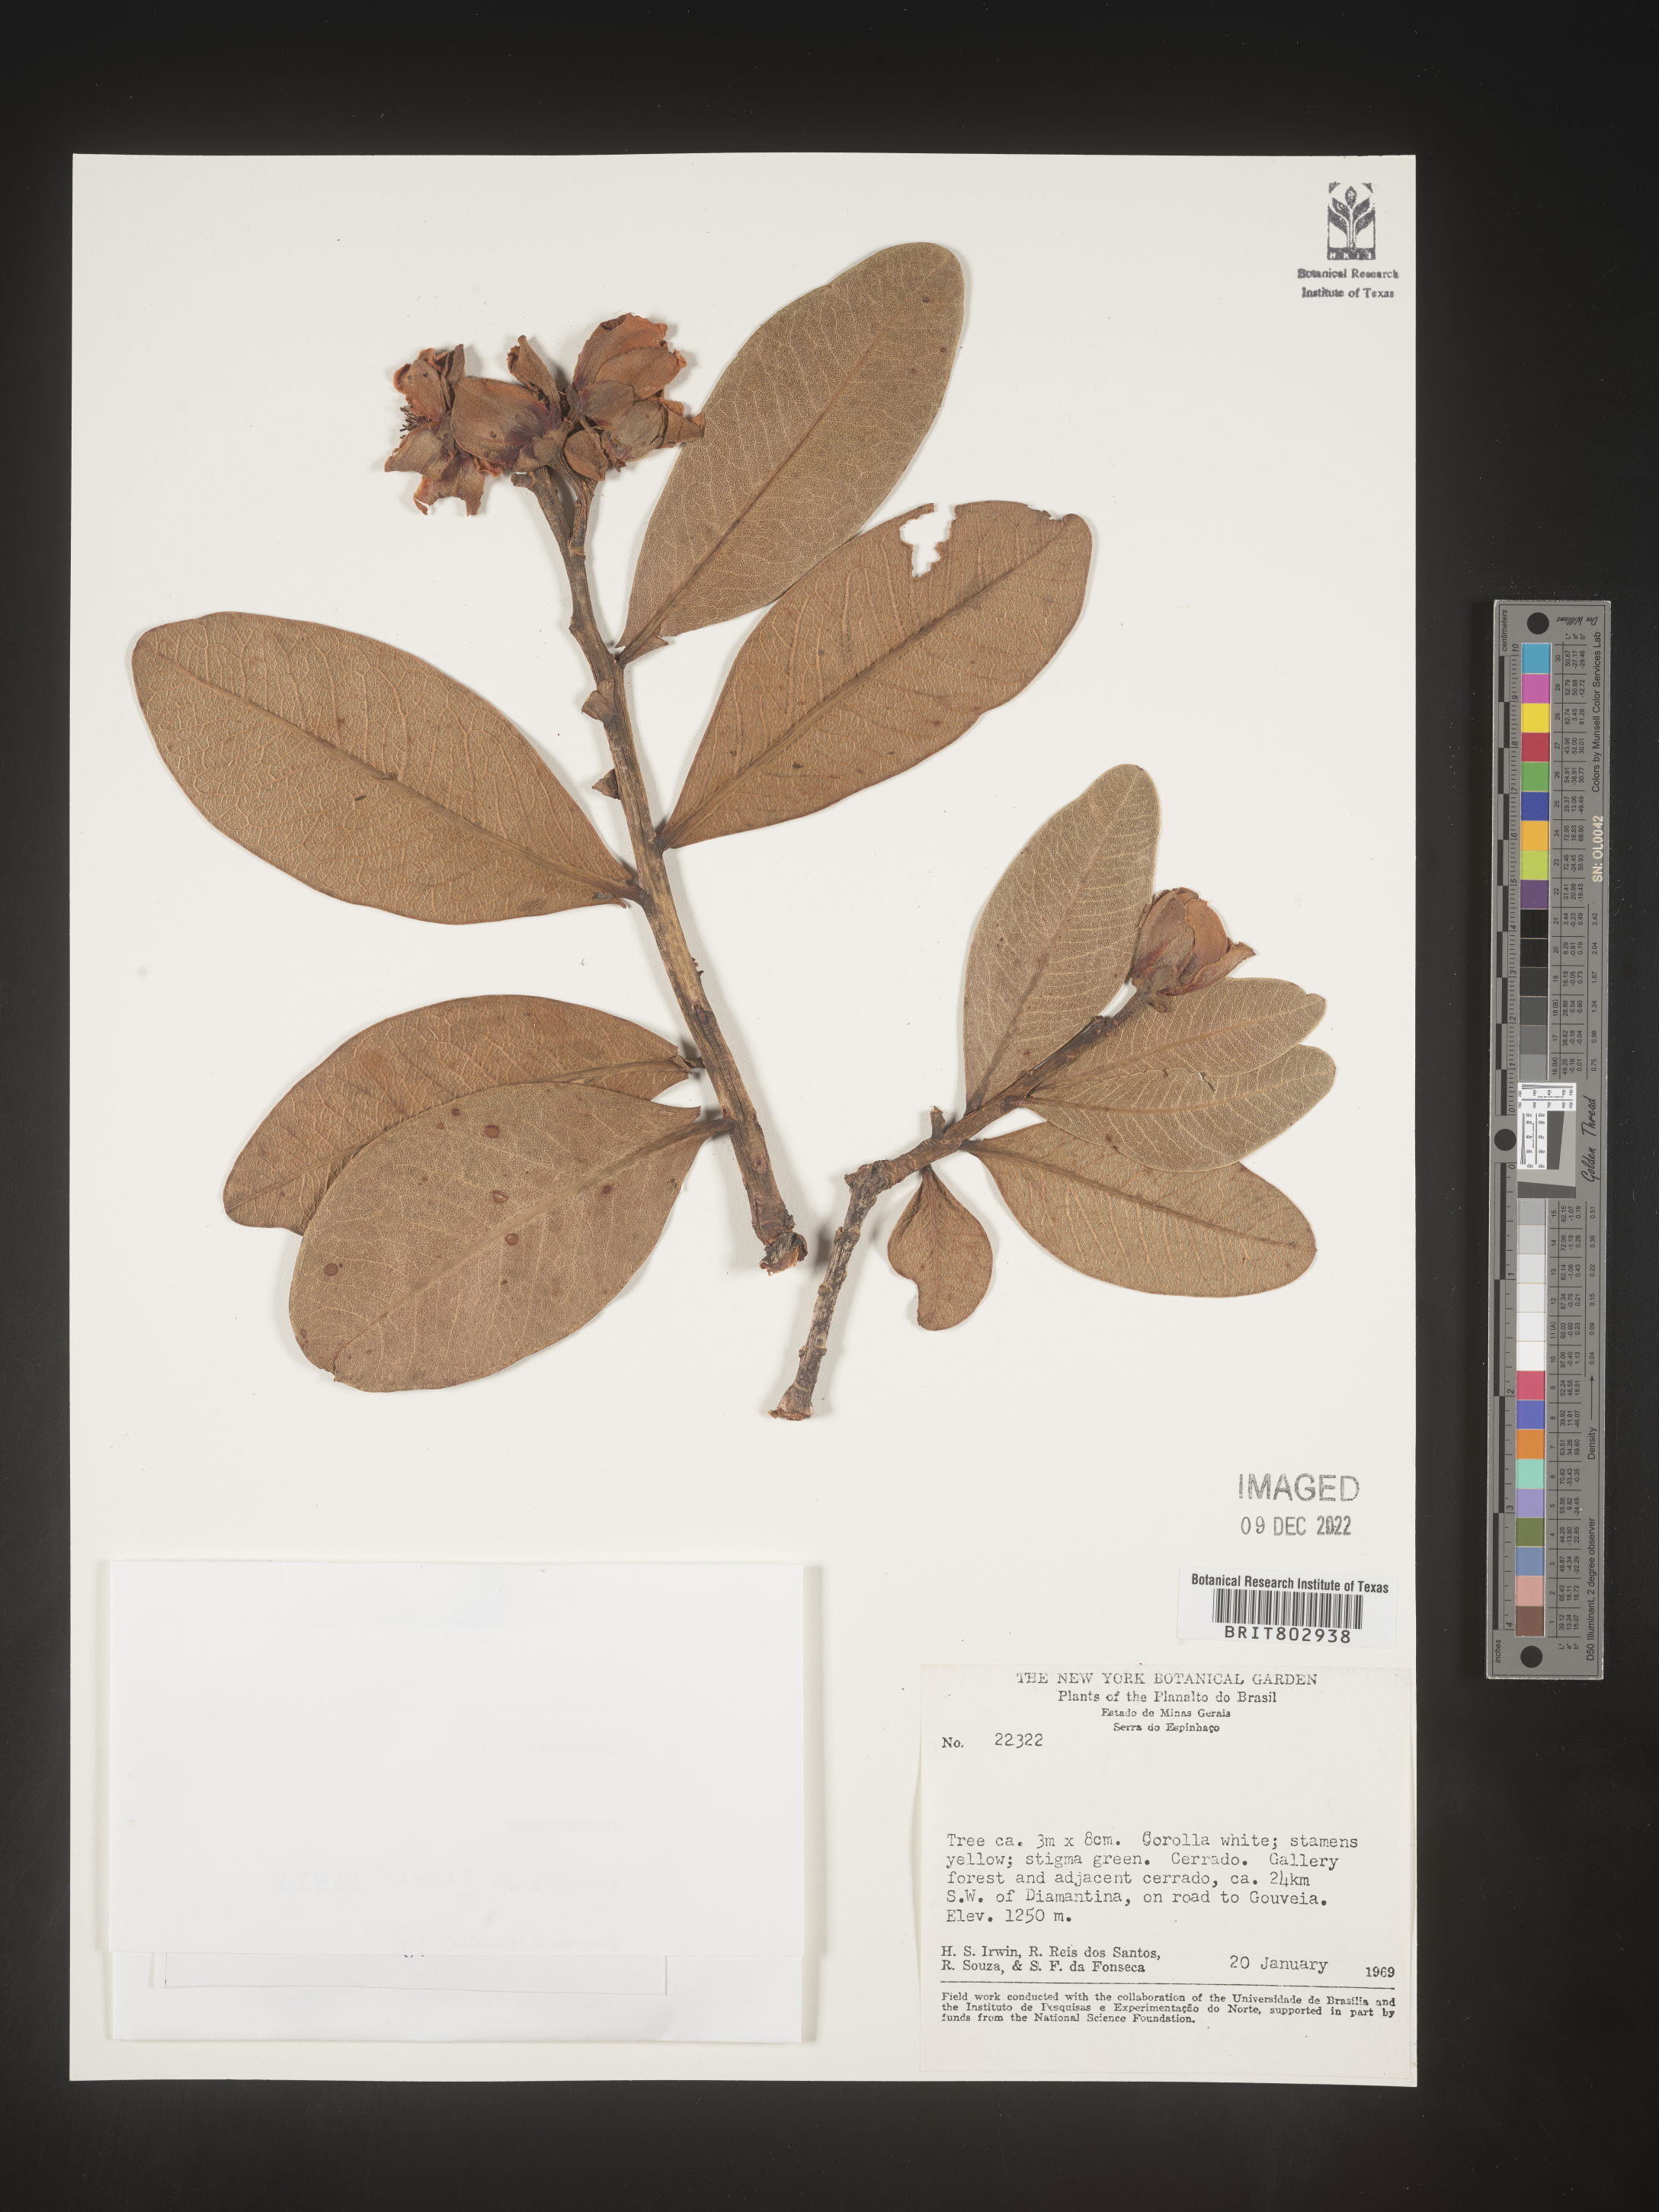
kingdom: Plantae
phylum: Tracheophyta
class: Magnoliopsida
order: Malpighiales
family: Calophyllaceae
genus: Kielmeyera
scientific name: Kielmeyera
